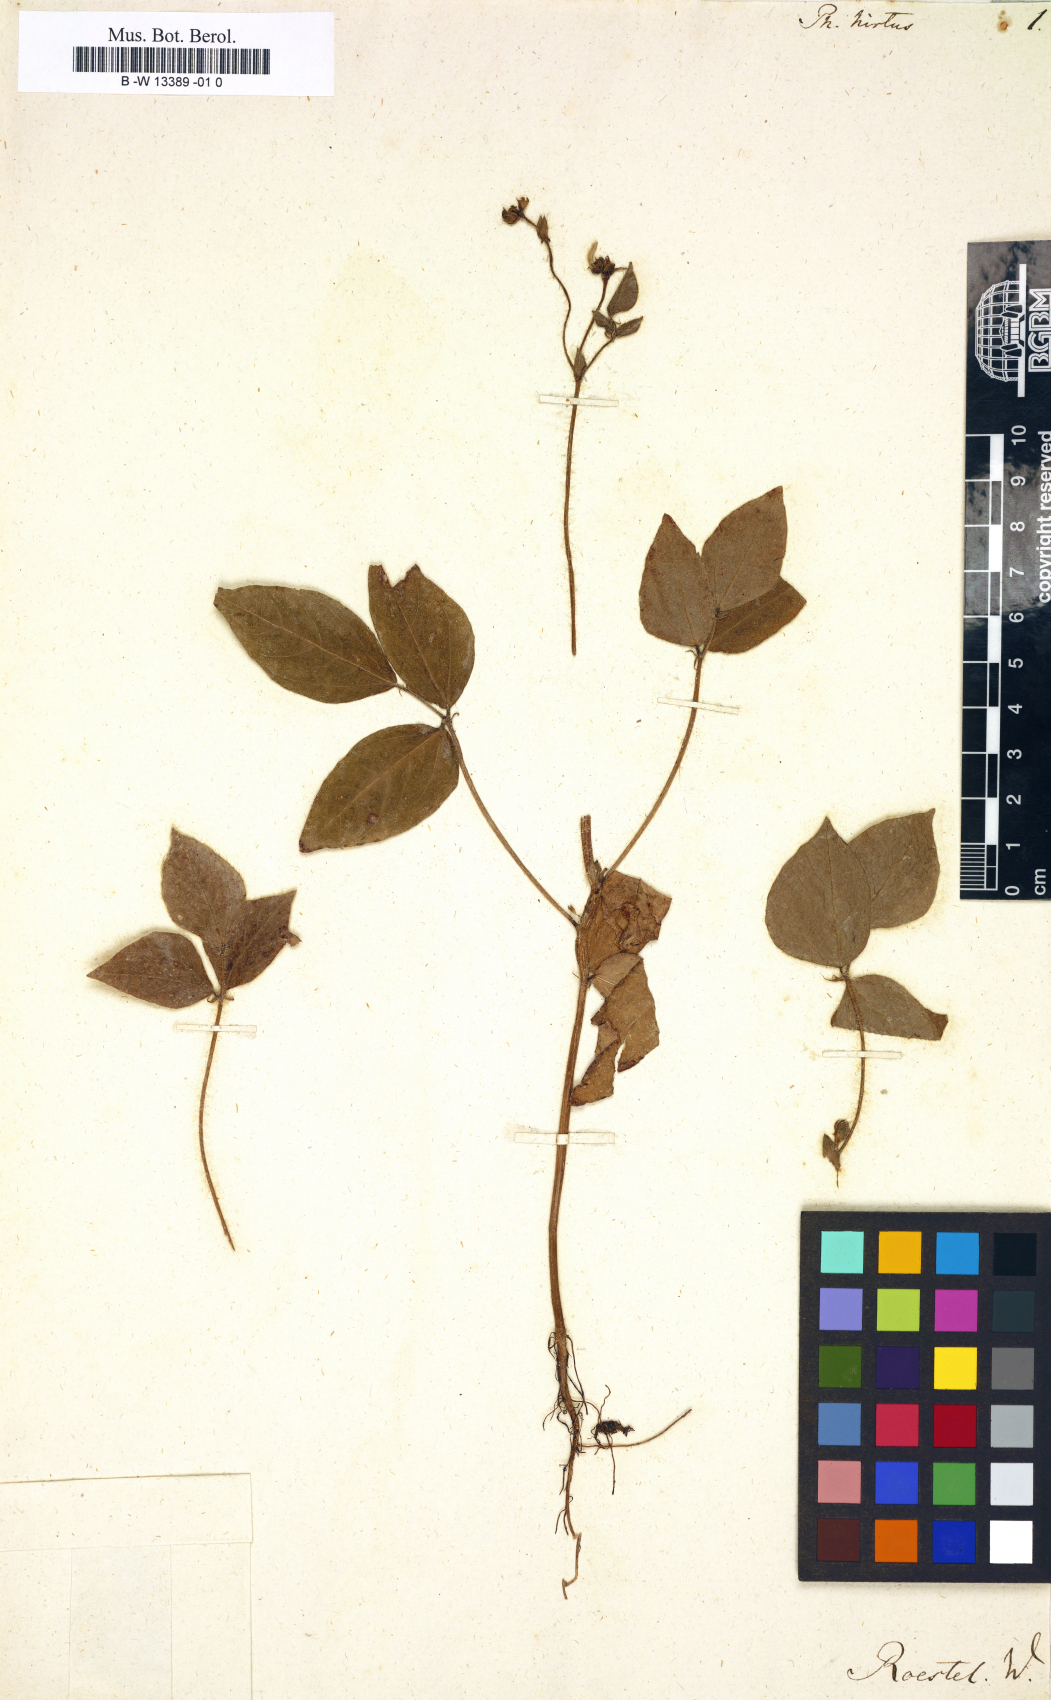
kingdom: Plantae
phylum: Tracheophyta
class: Magnoliopsida
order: Fabales
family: Fabaceae
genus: Vigna
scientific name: Vigna mungo
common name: Black gram
